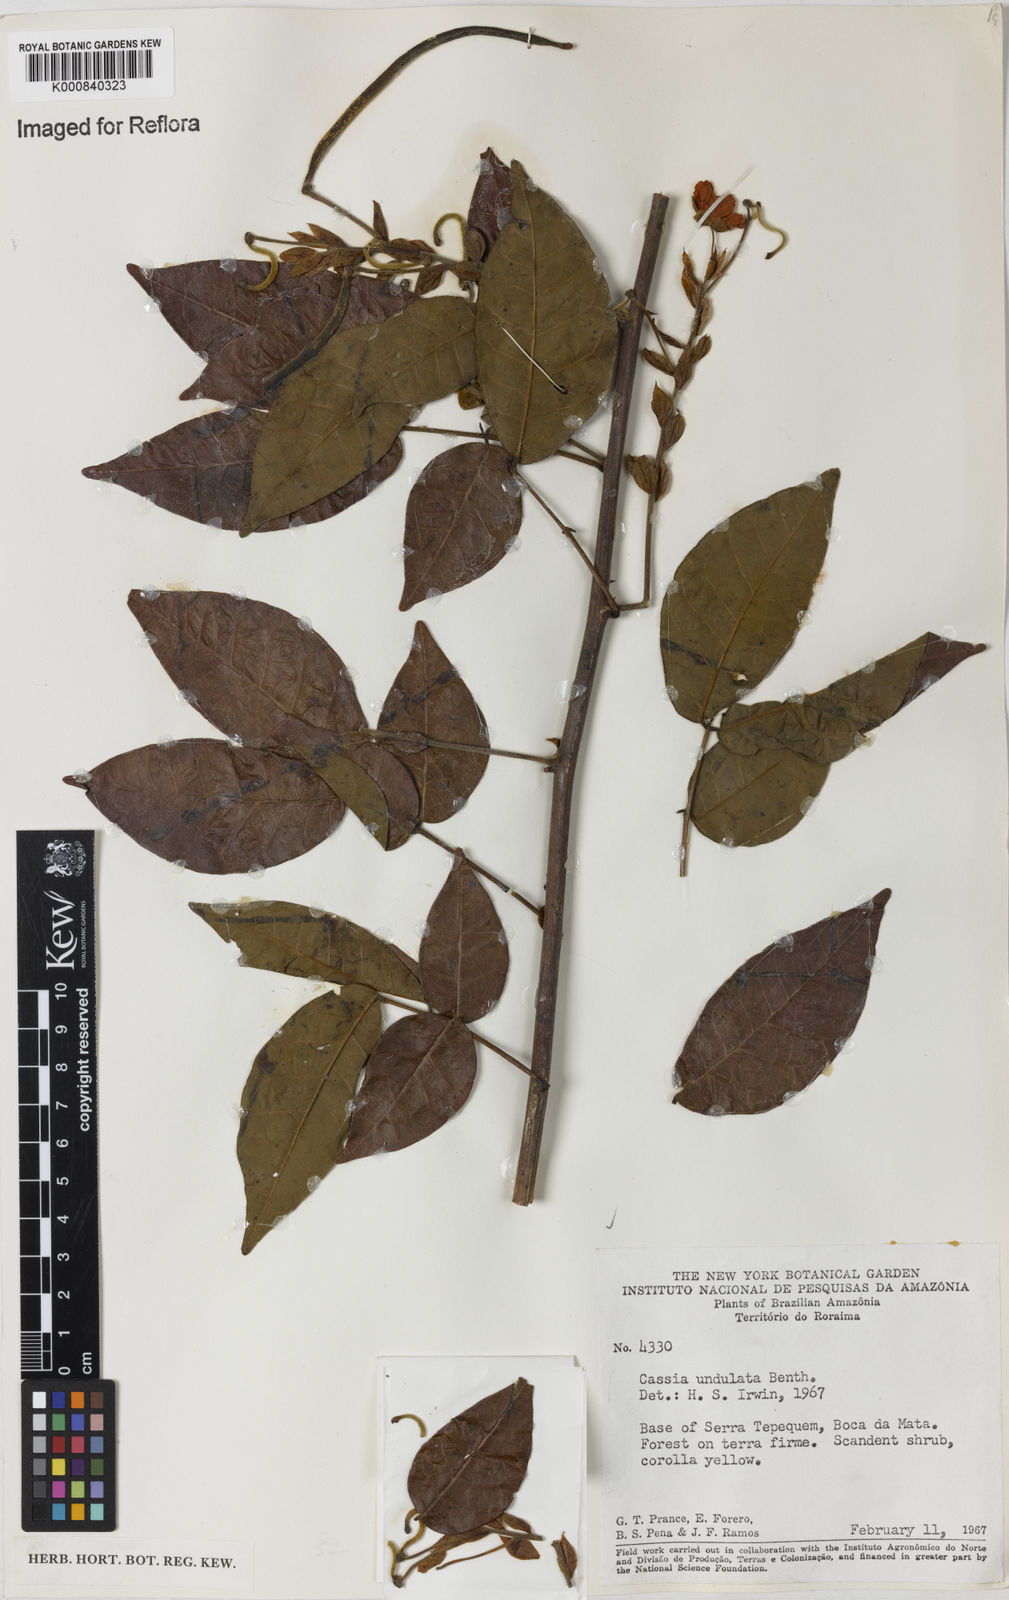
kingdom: Plantae
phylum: Tracheophyta
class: Magnoliopsida
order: Fabales
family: Fabaceae
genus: Senna
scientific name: Senna undulata
